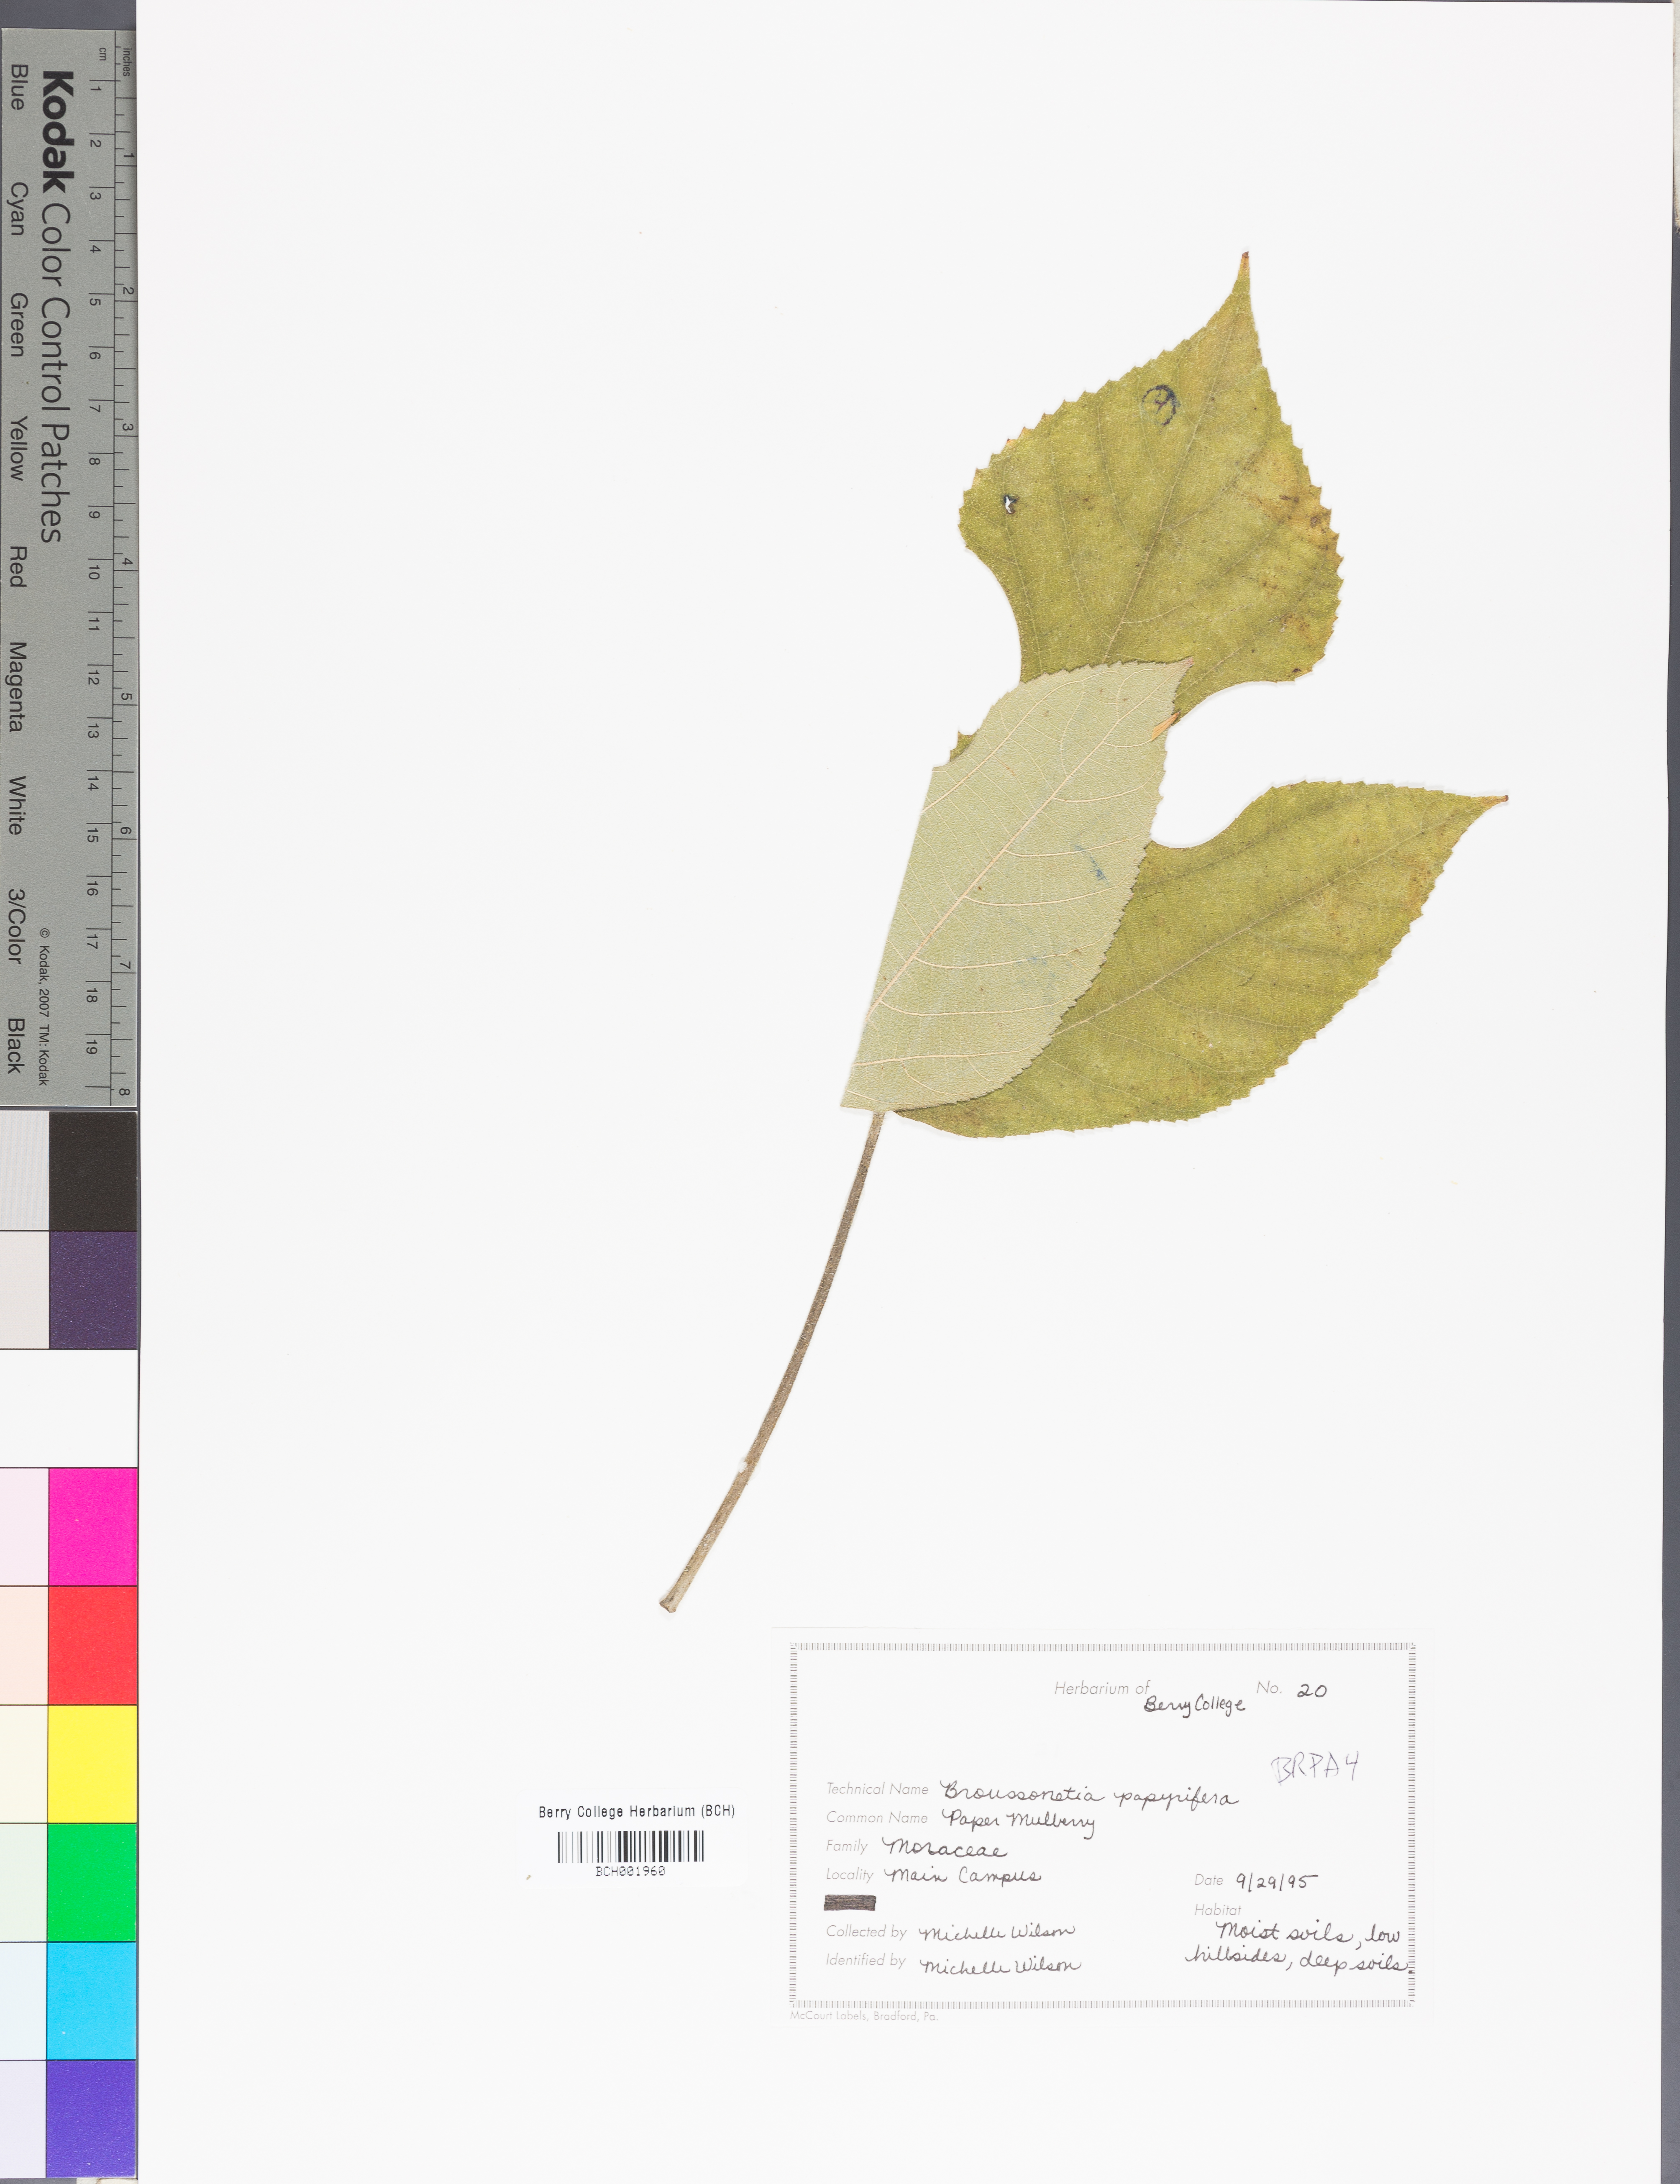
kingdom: Plantae
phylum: Tracheophyta
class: Magnoliopsida
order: Rosales
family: Moraceae
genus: Broussonetia
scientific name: Broussonetia papyrifera
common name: Paper mulberry
